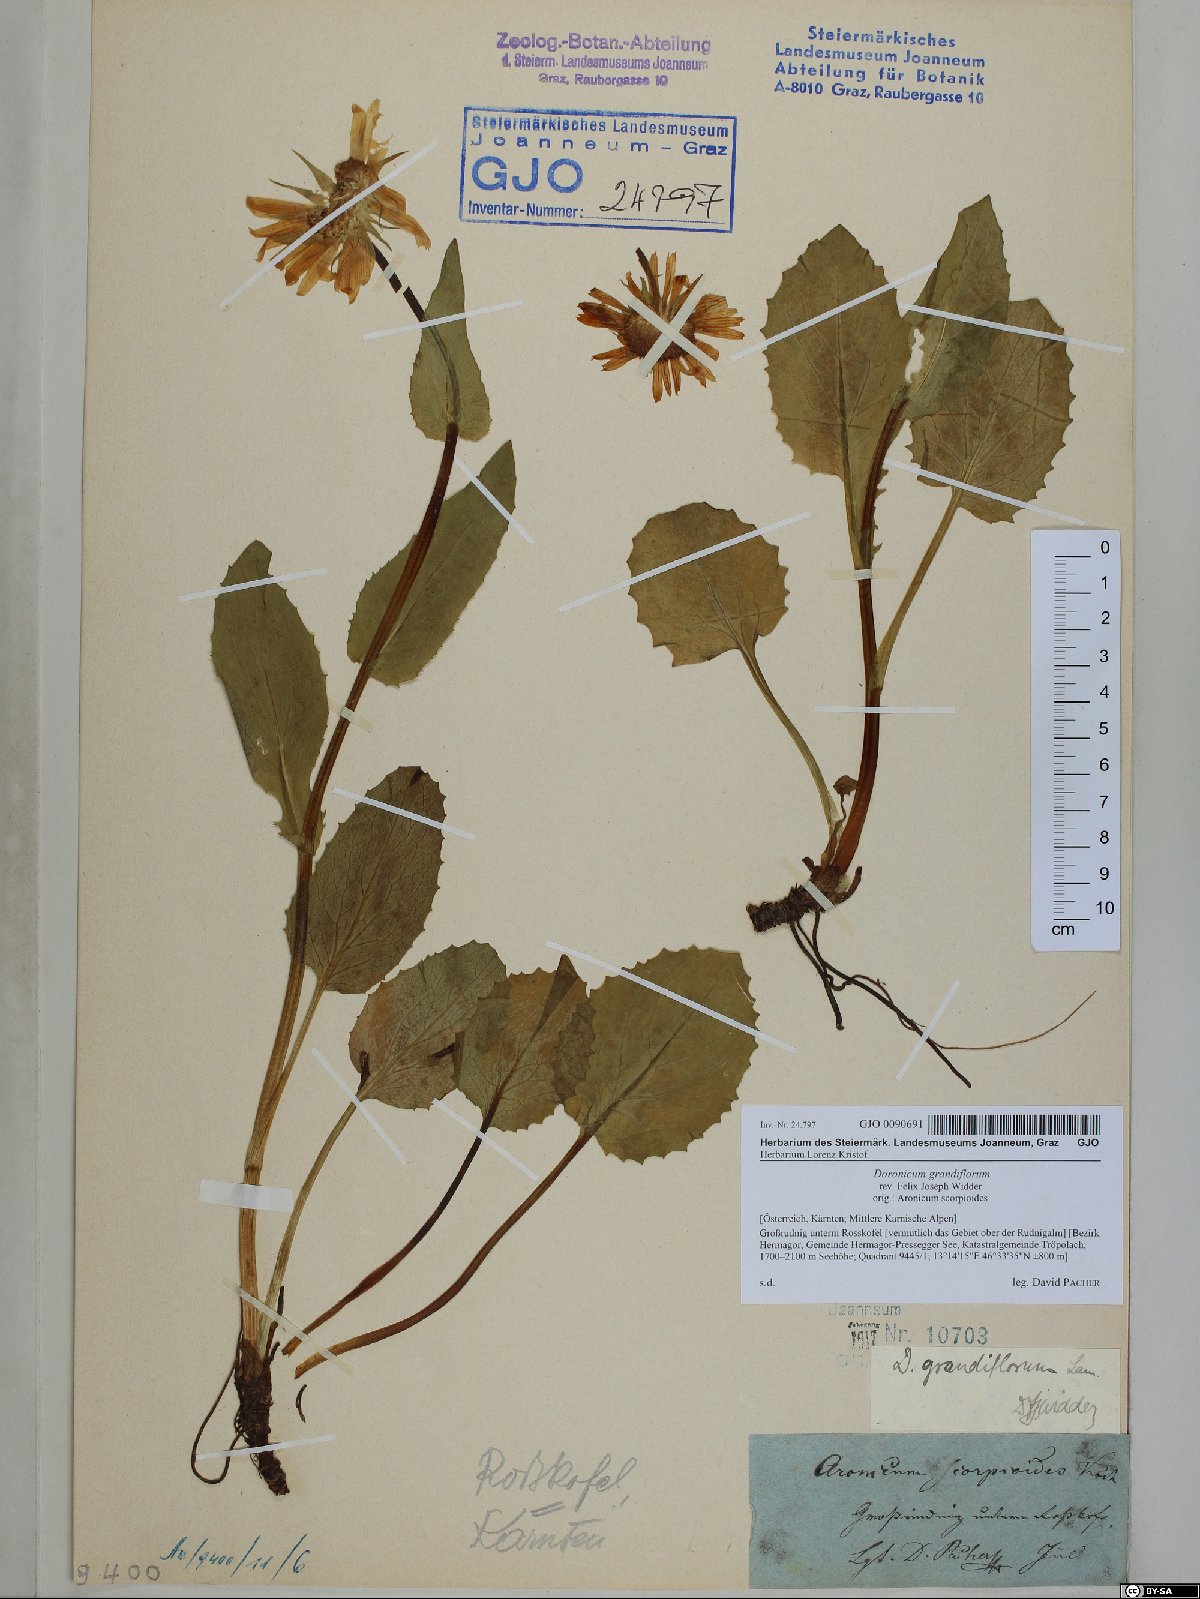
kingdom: Plantae
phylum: Tracheophyta
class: Magnoliopsida
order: Asterales
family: Asteraceae
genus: Doronicum
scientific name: Doronicum grandiflorum
